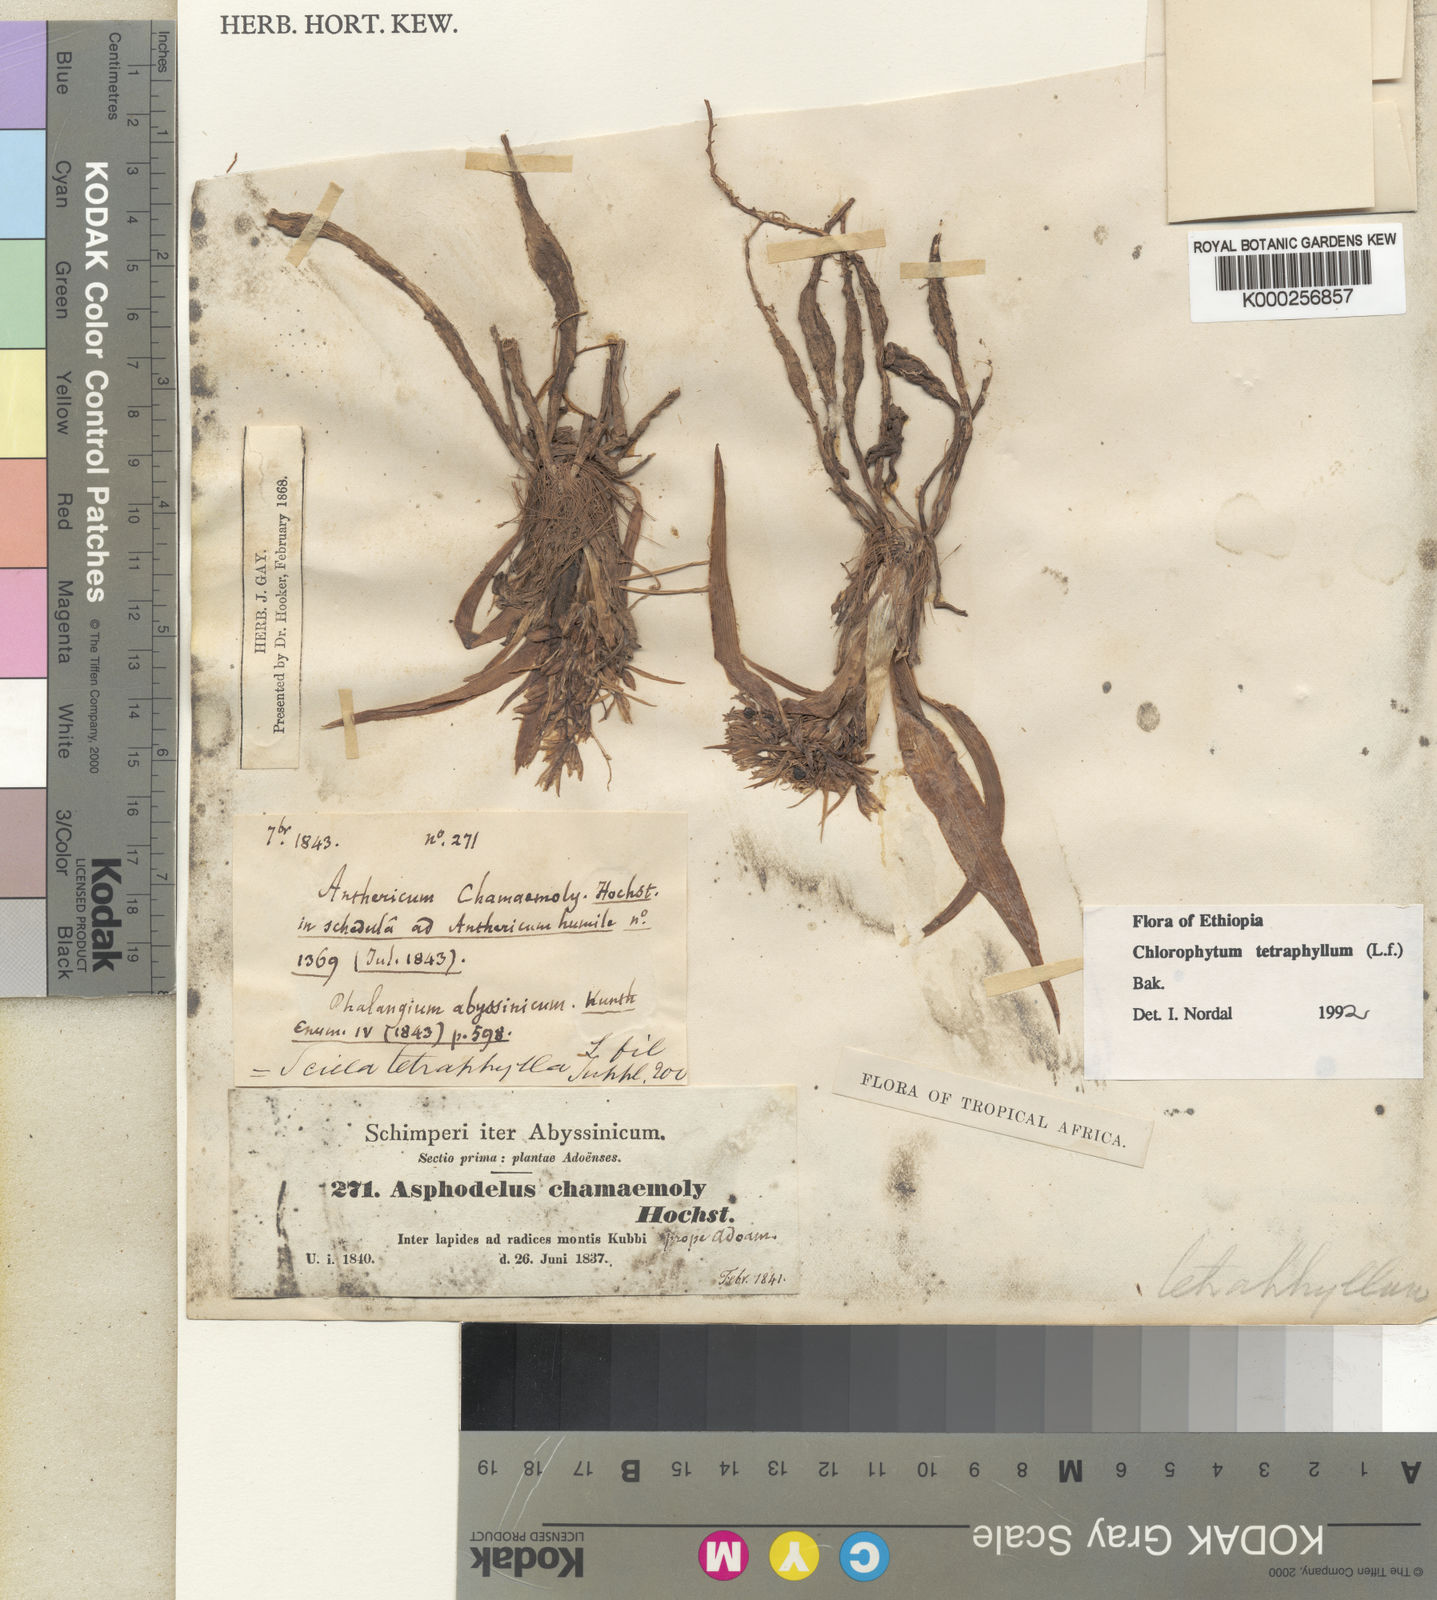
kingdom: Plantae
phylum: Tracheophyta
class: Liliopsida
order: Asparagales
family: Asparagaceae
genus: Chlorophytum
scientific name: Chlorophytum tetraphyllum
